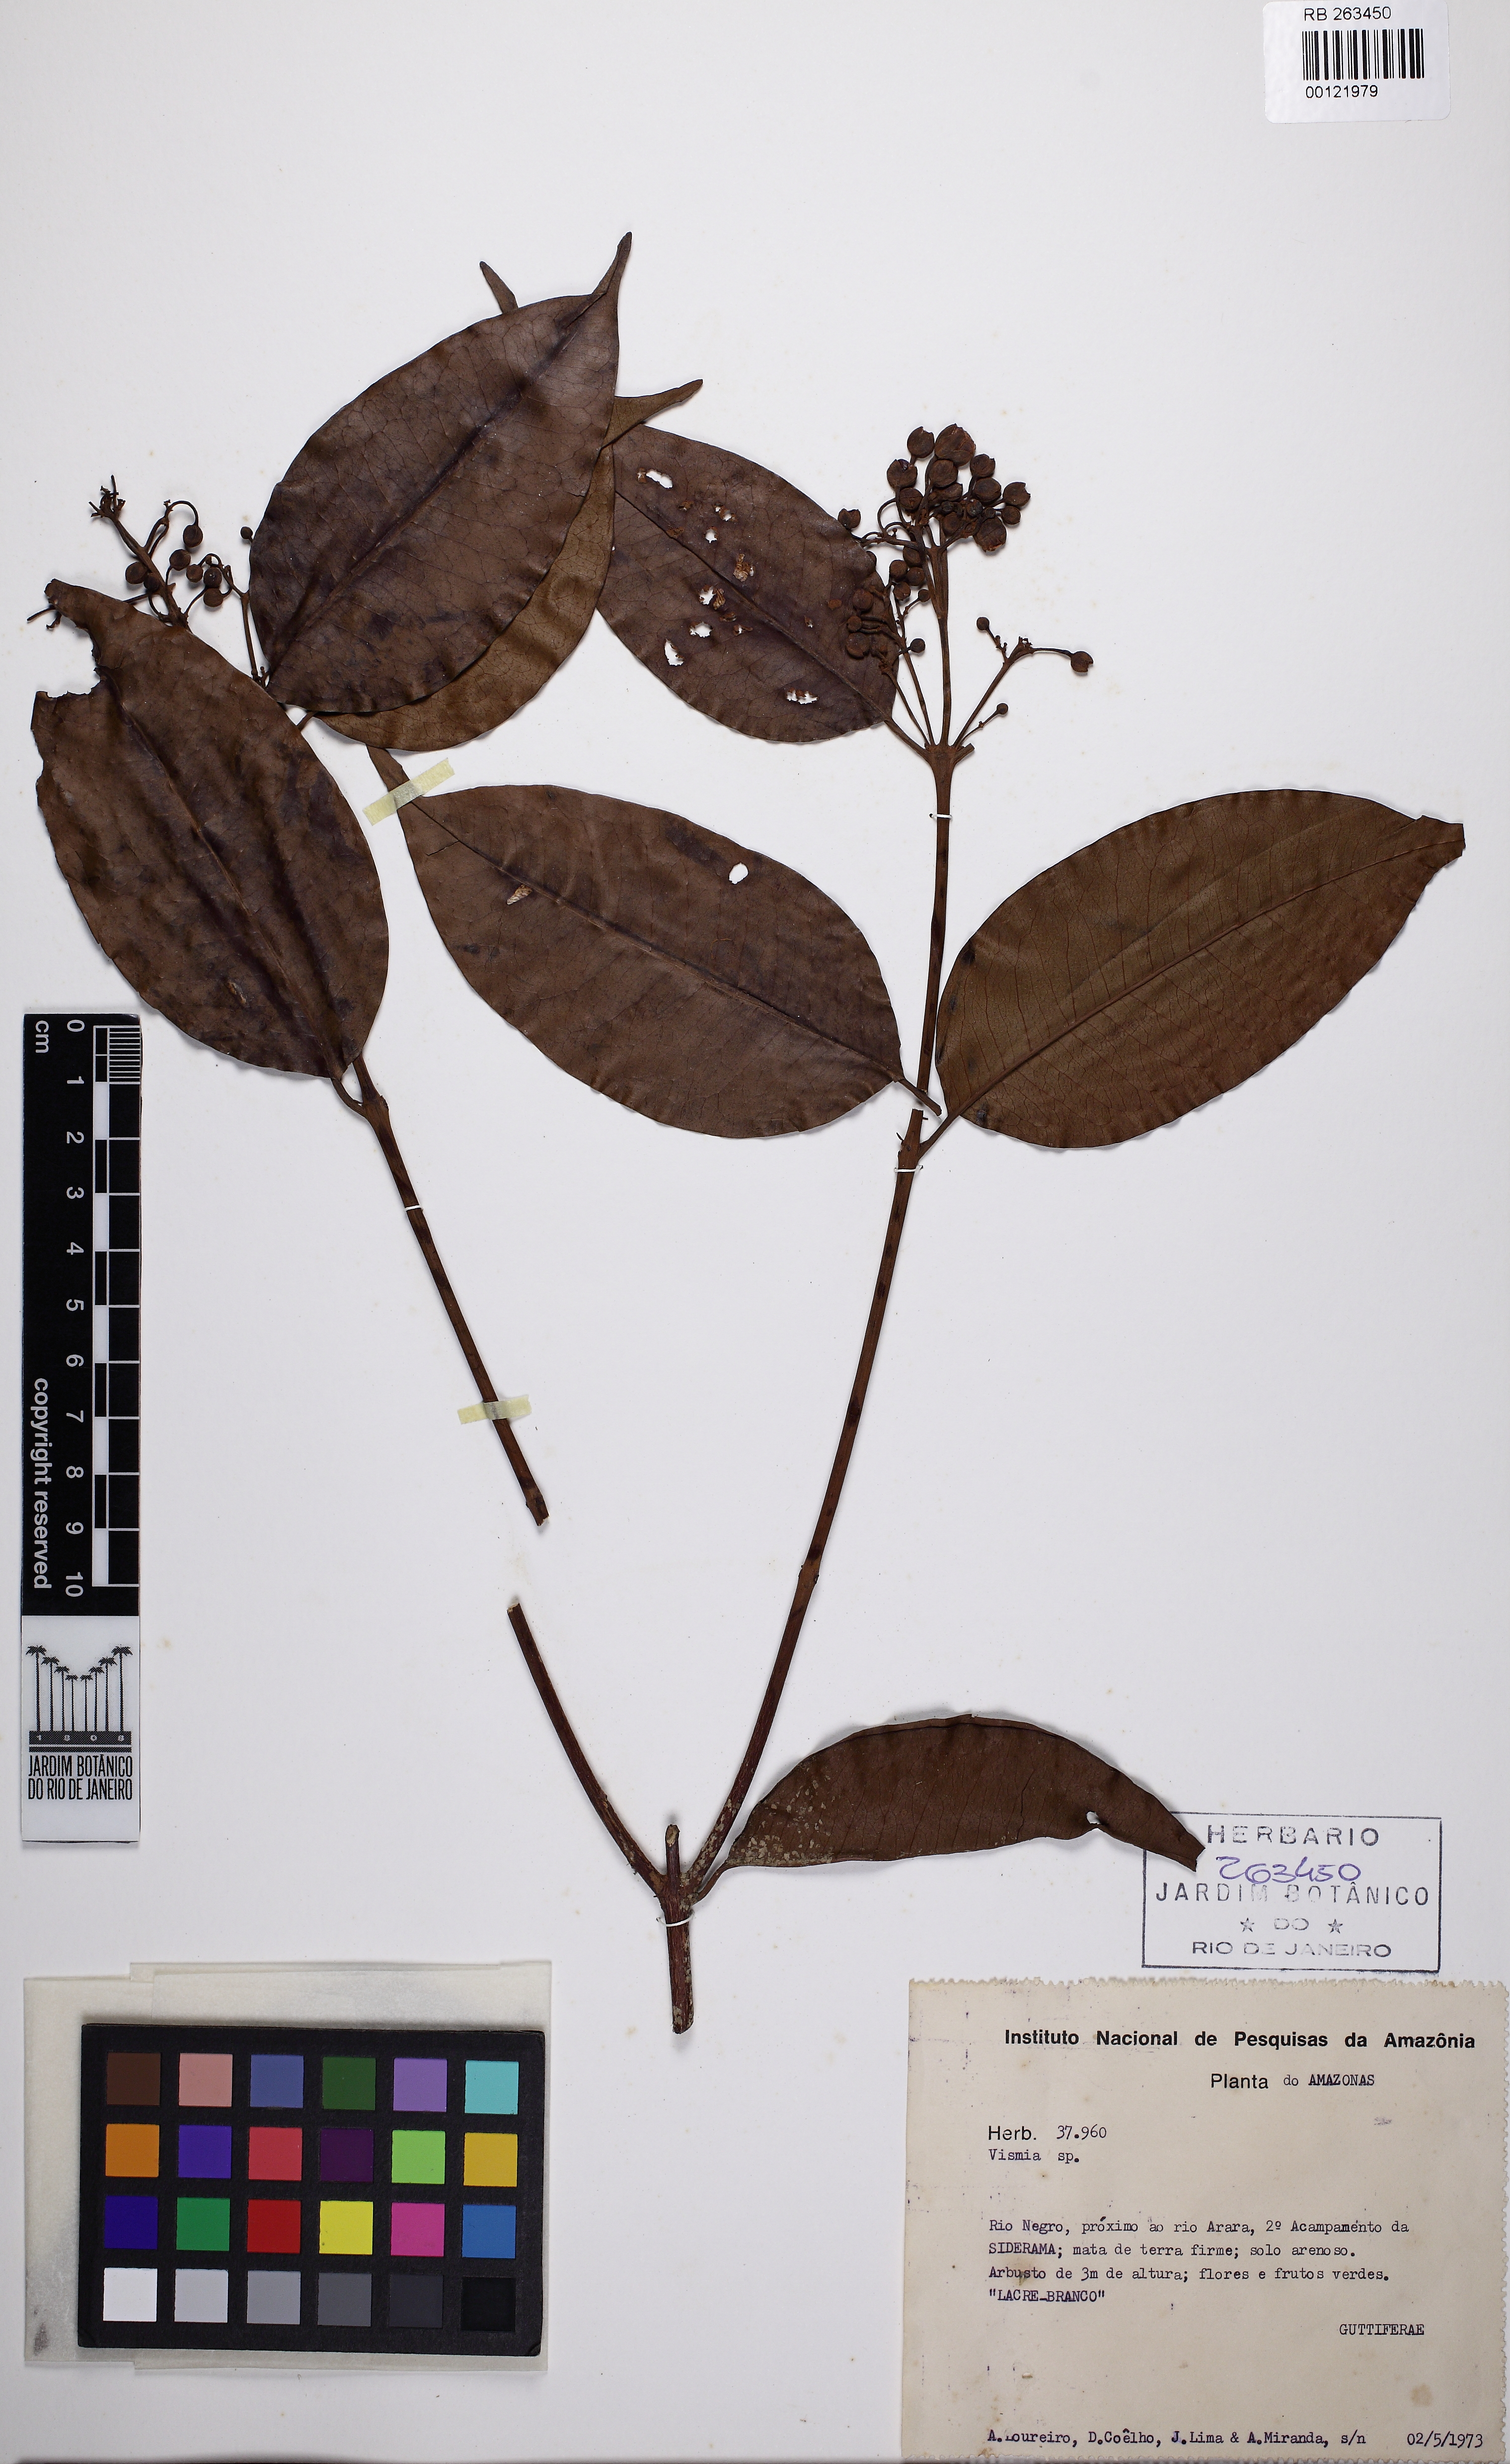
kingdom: Plantae
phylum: Tracheophyta
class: Magnoliopsida
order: Malpighiales
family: Hypericaceae
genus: Vismia
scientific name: Vismia cayennensis
